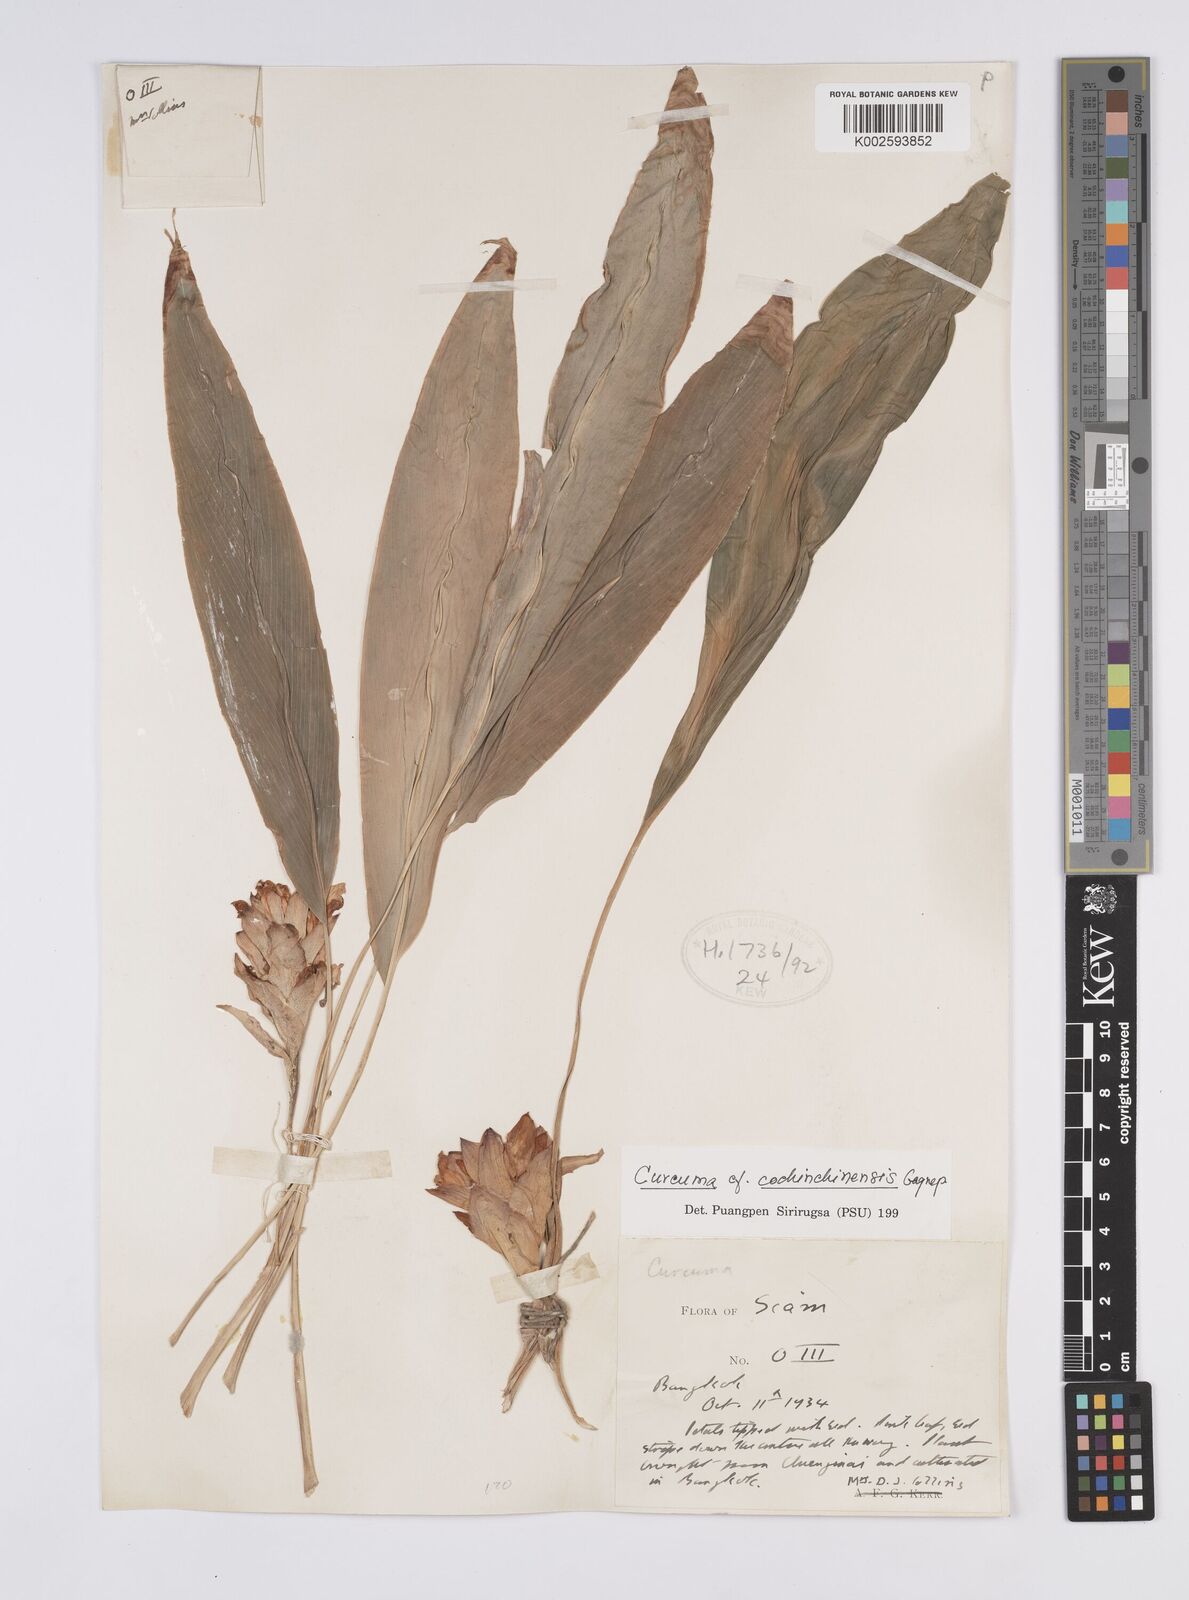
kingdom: Plantae
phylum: Tracheophyta
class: Liliopsida
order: Zingiberales
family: Zingiberaceae
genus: Curcuma
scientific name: Curcuma cochinchinensis
